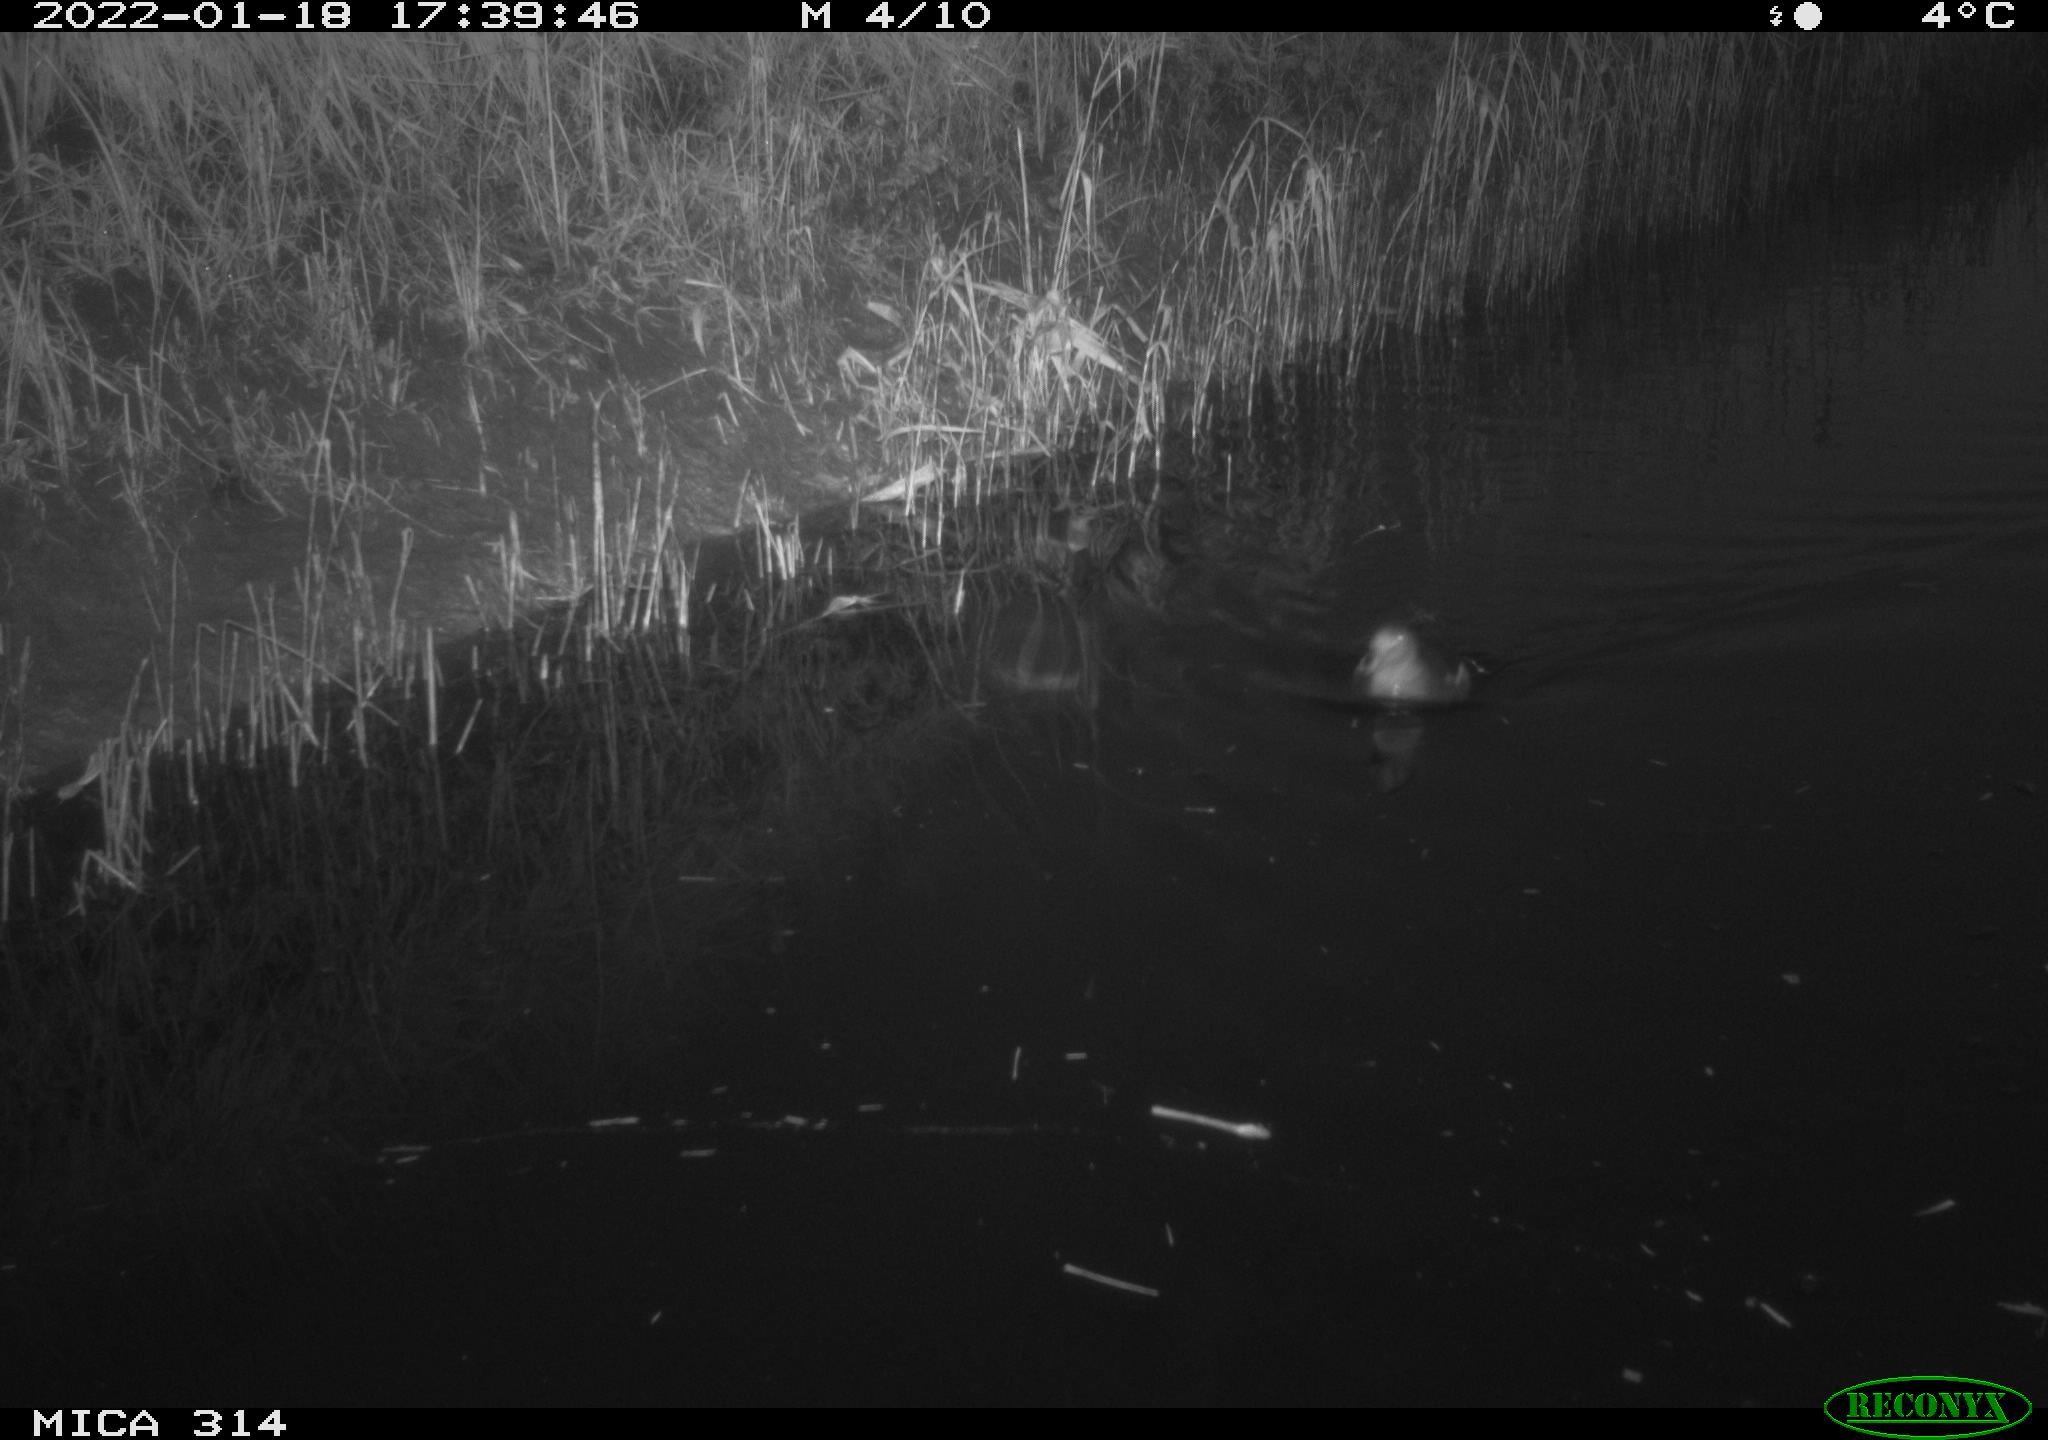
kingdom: Animalia
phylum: Chordata
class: Aves
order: Gruiformes
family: Rallidae
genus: Gallinula
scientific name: Gallinula chloropus
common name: Common moorhen
